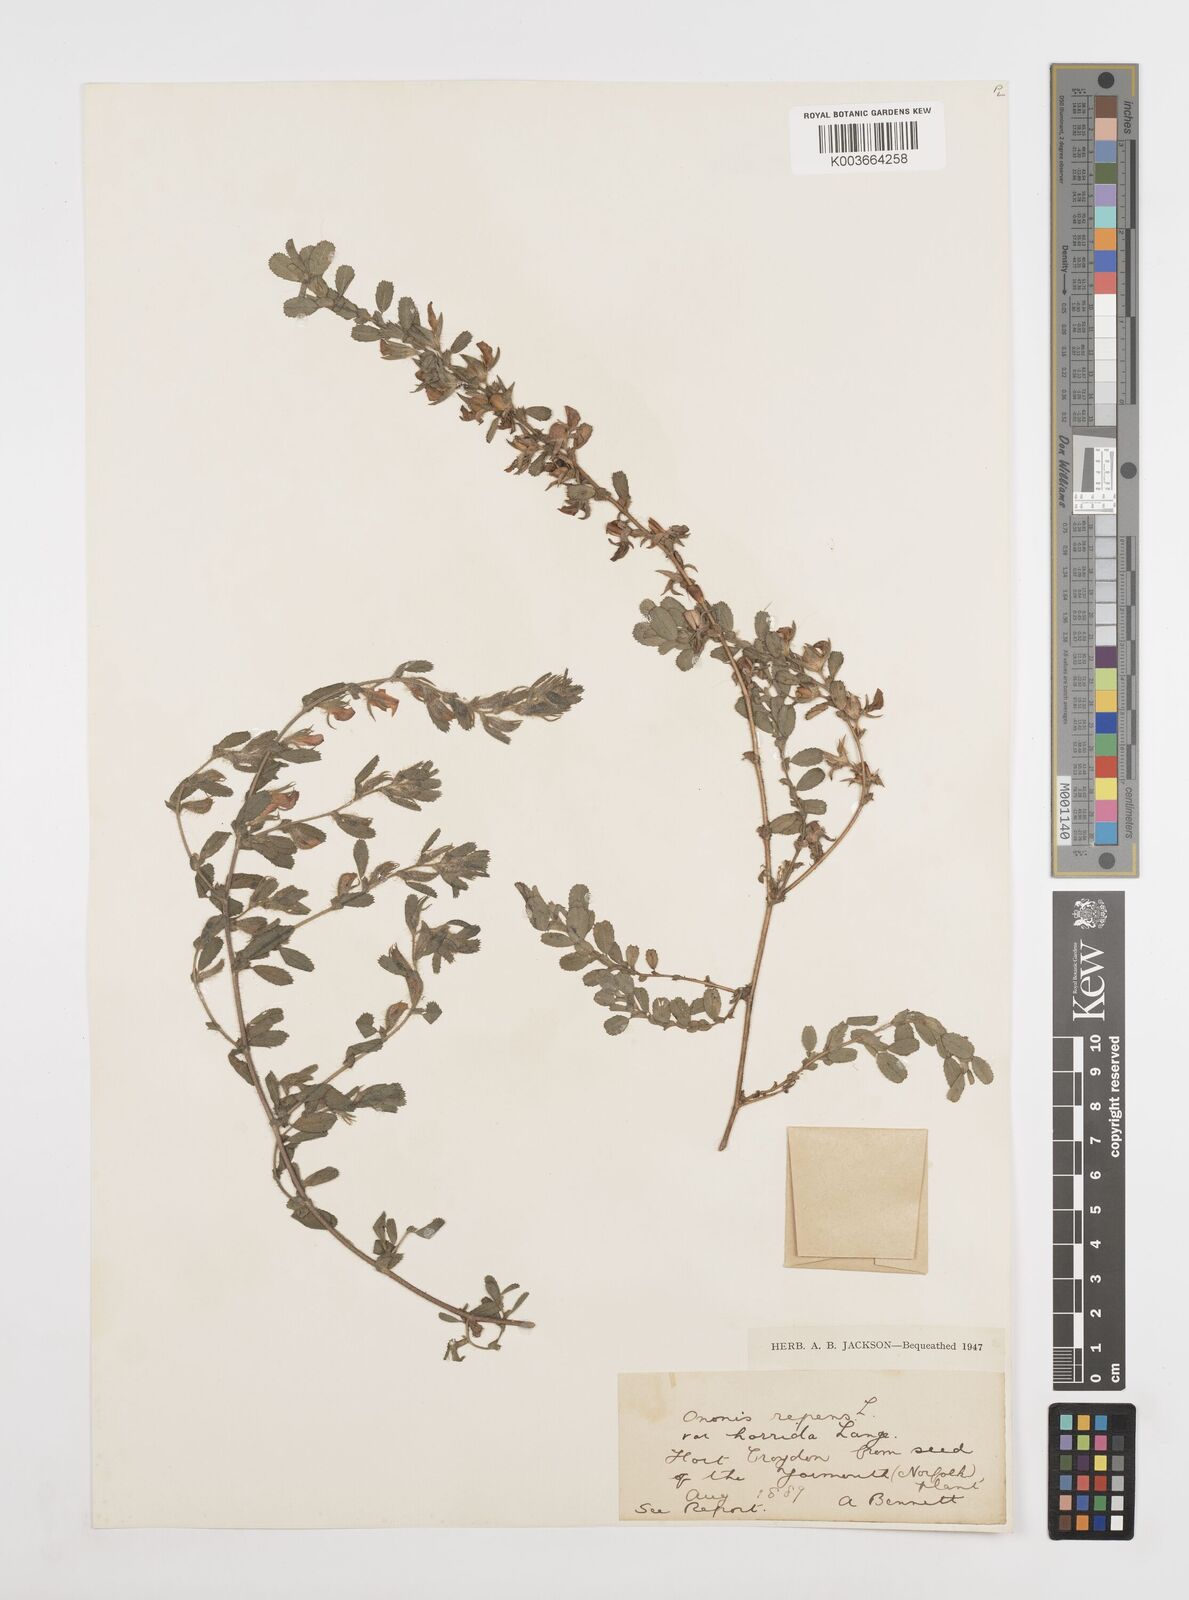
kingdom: Plantae
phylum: Tracheophyta
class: Magnoliopsida
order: Fabales
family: Fabaceae
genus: Ononis
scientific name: Ononis spinosa
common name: Spiny restharrow
